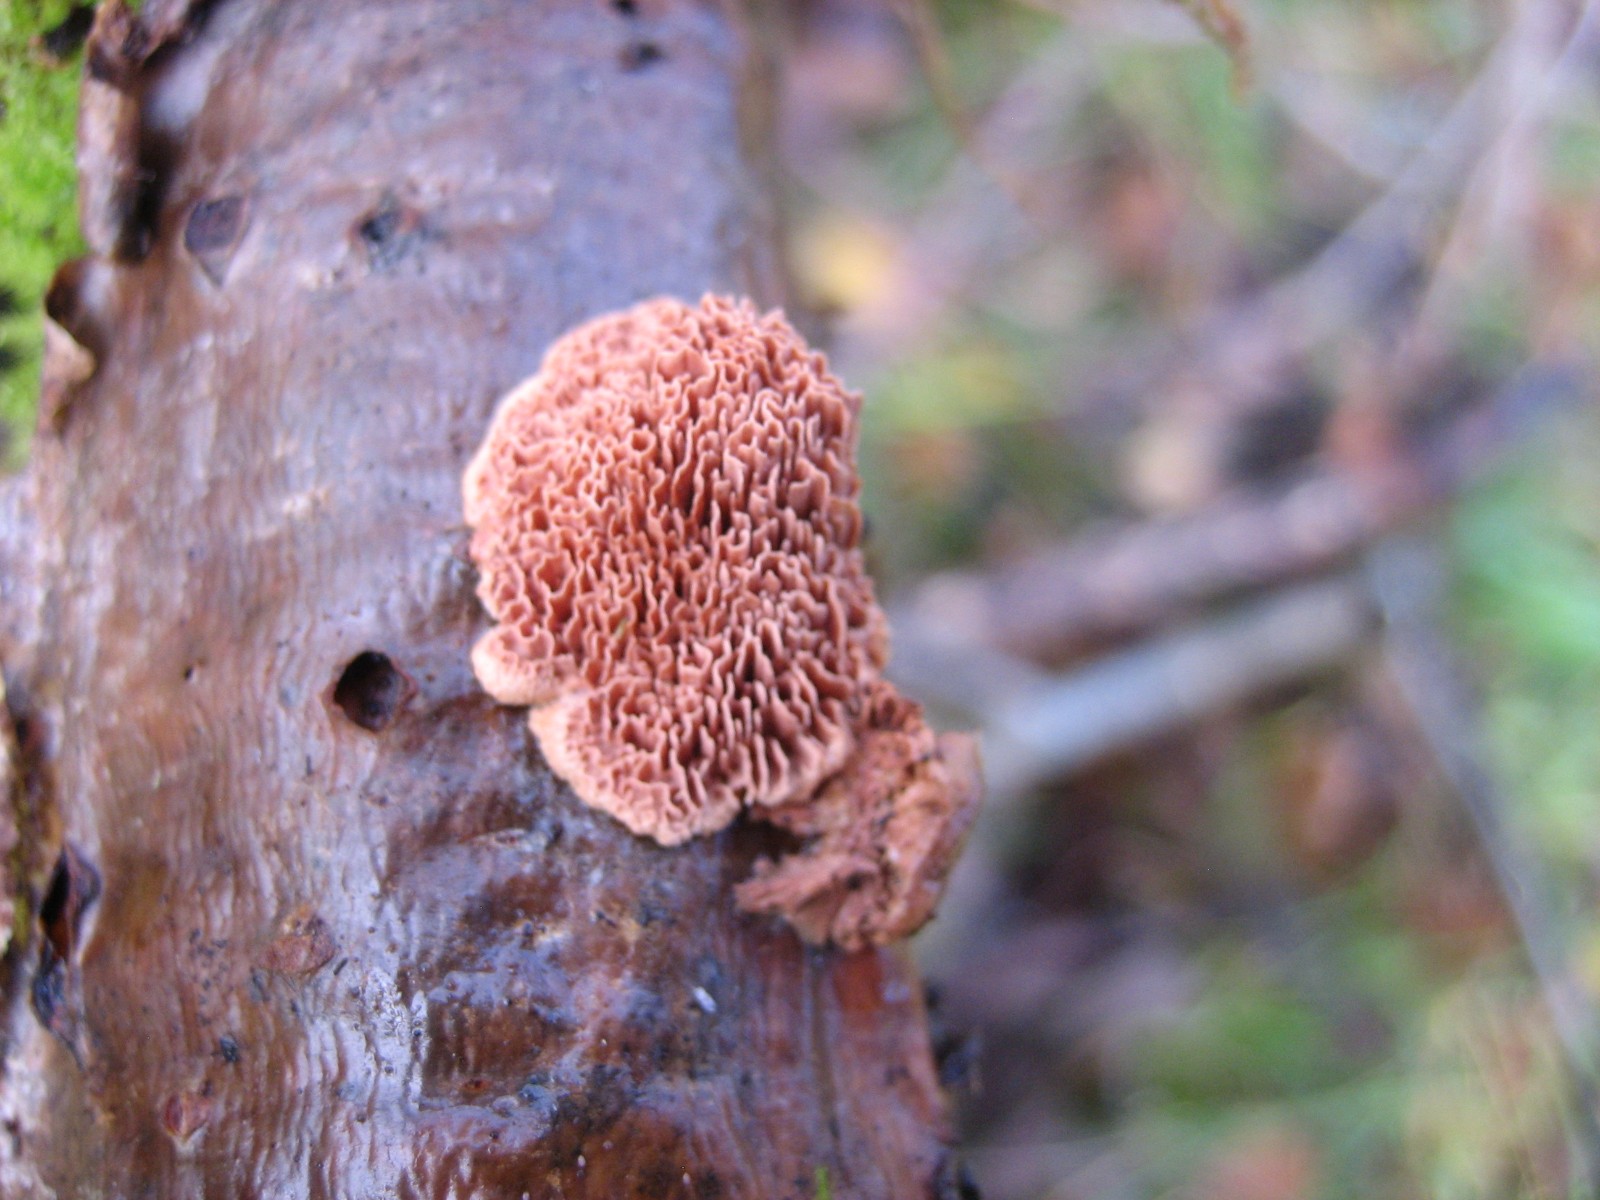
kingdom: Fungi
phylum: Basidiomycota
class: Agaricomycetes
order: Polyporales
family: Phanerochaetaceae
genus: Hapalopilus
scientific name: Hapalopilus rutilans
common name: rødlig okkerporesvamp
